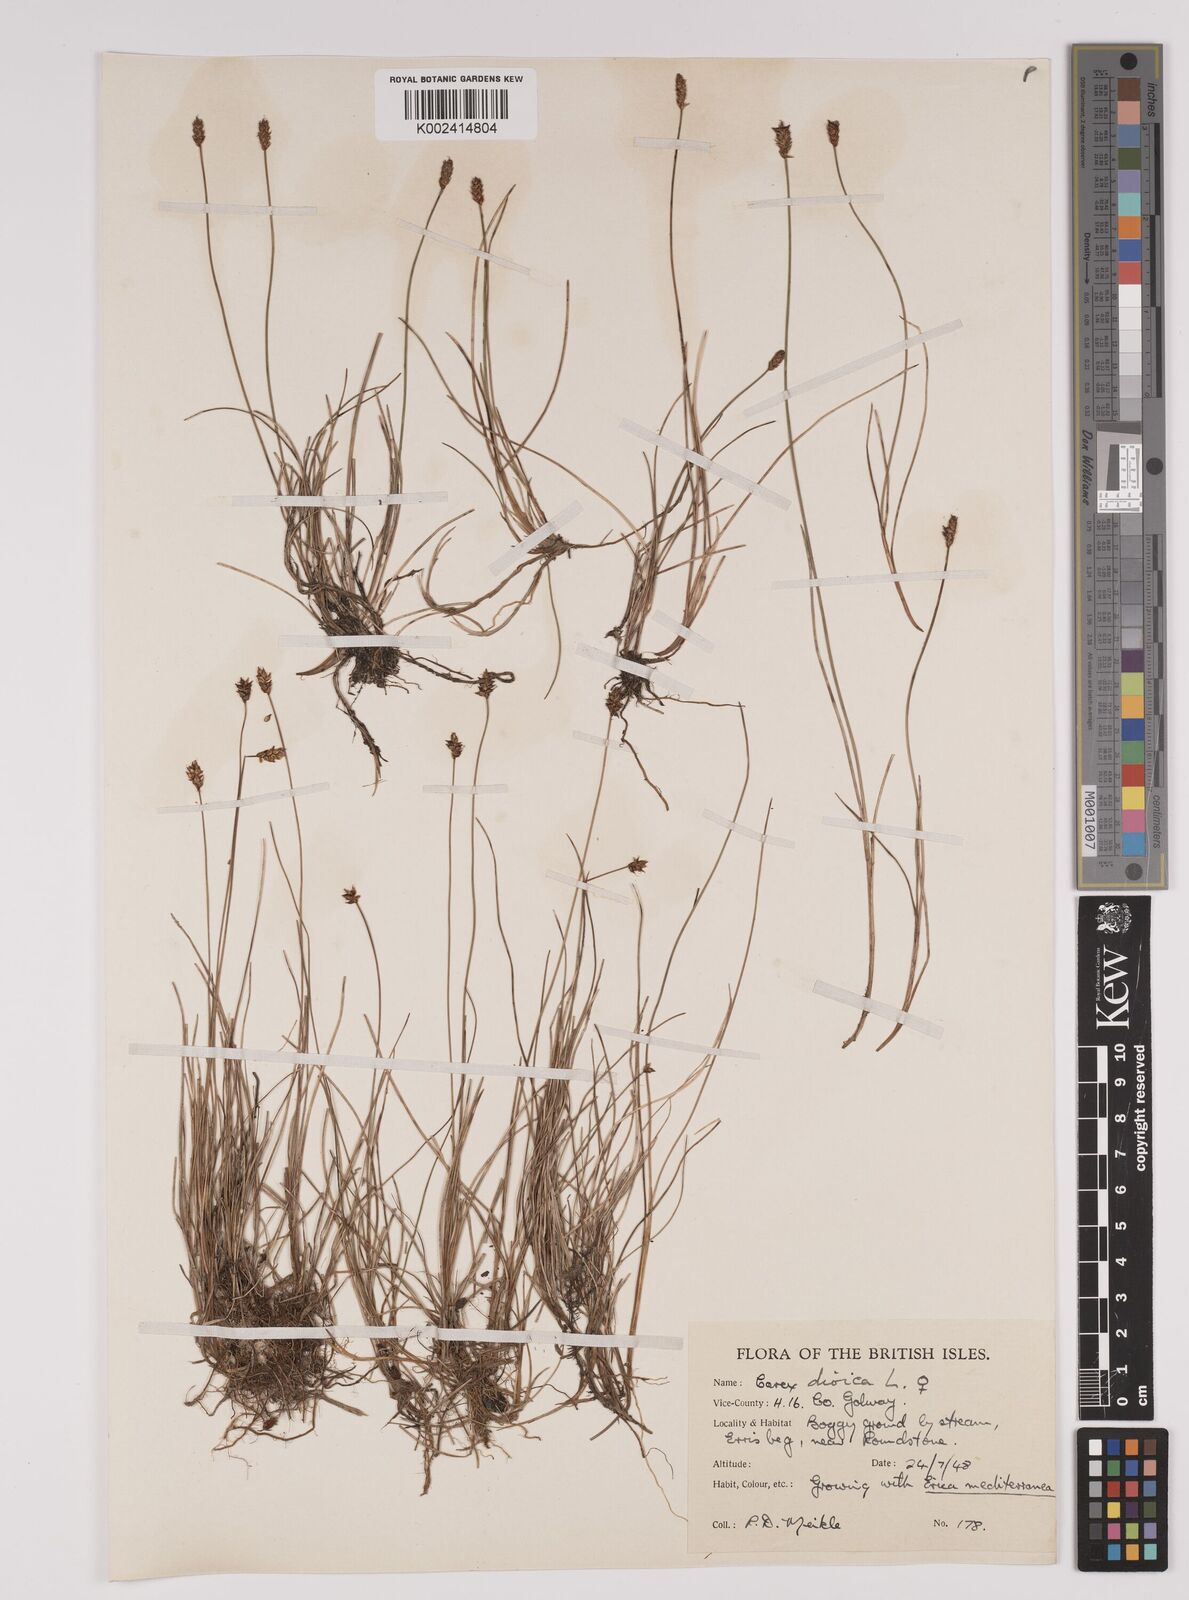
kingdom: Plantae
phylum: Tracheophyta
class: Liliopsida
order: Poales
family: Cyperaceae
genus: Carex
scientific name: Carex dioica
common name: Dioecious sedge
